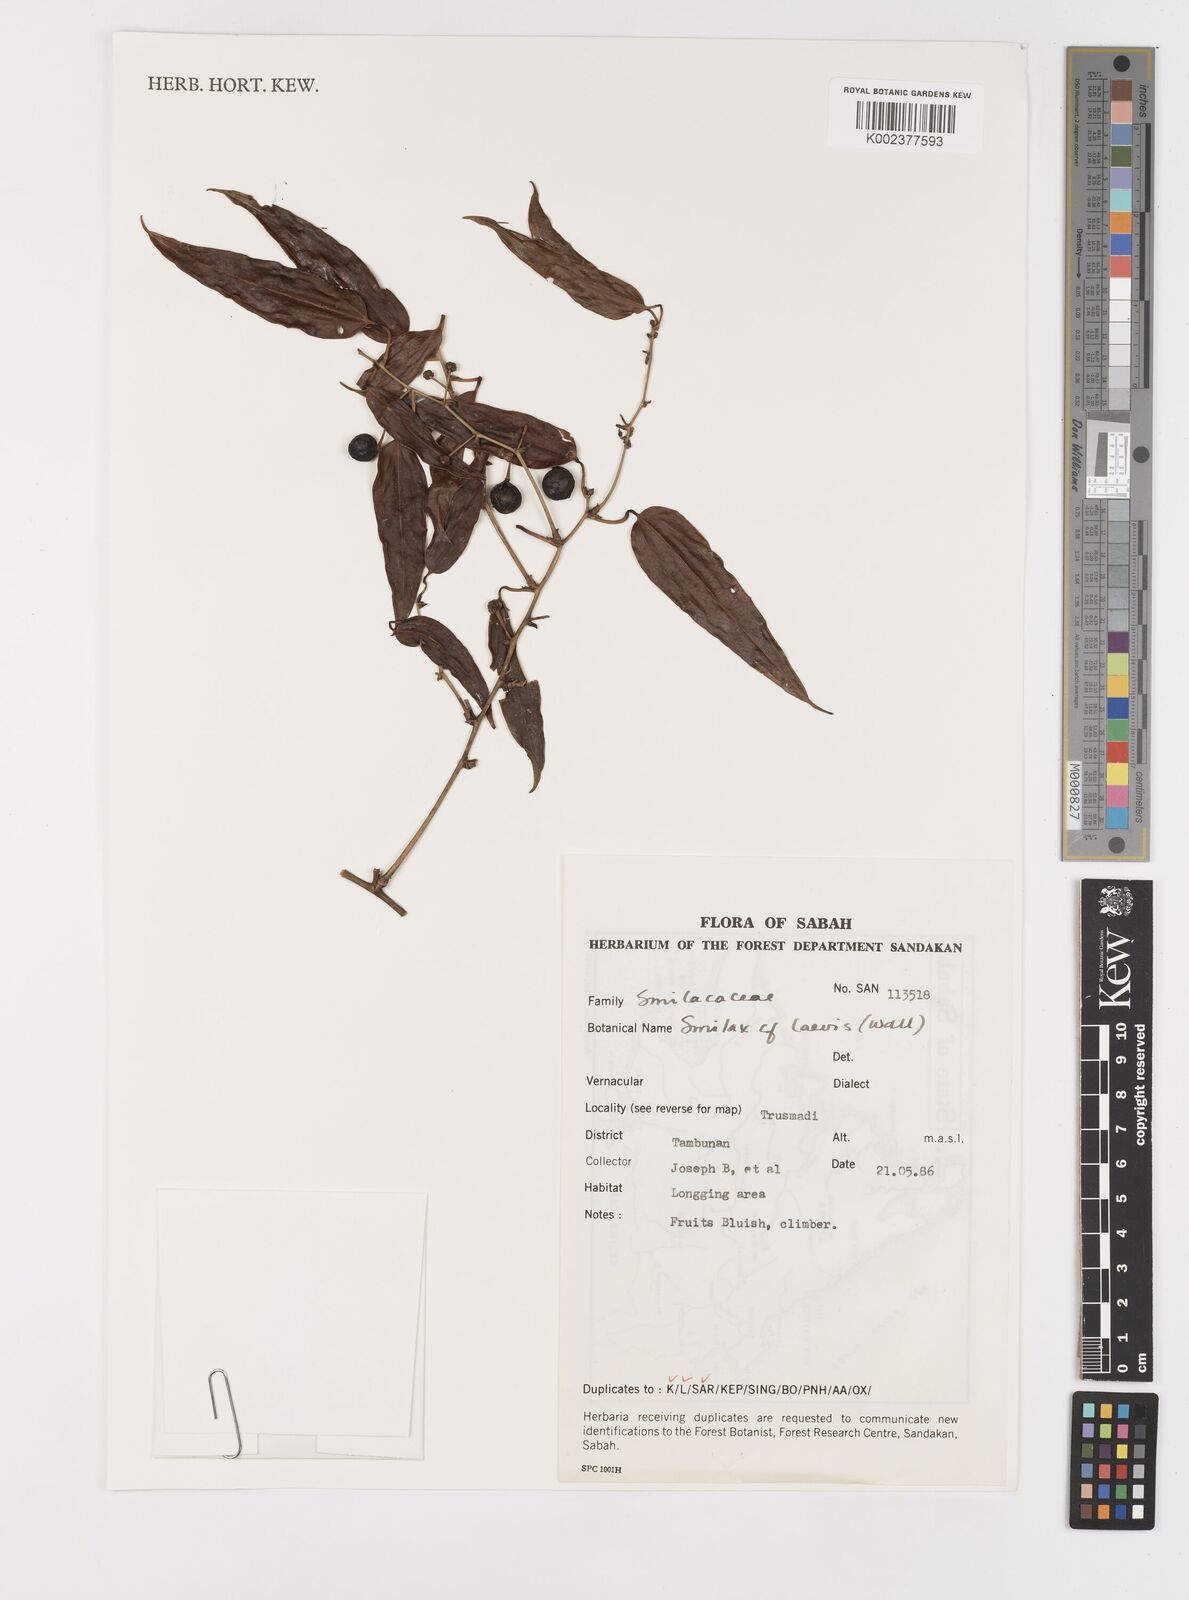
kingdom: Plantae
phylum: Tracheophyta
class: Liliopsida
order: Liliales
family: Smilacaceae
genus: Smilax
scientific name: Smilax laevis
